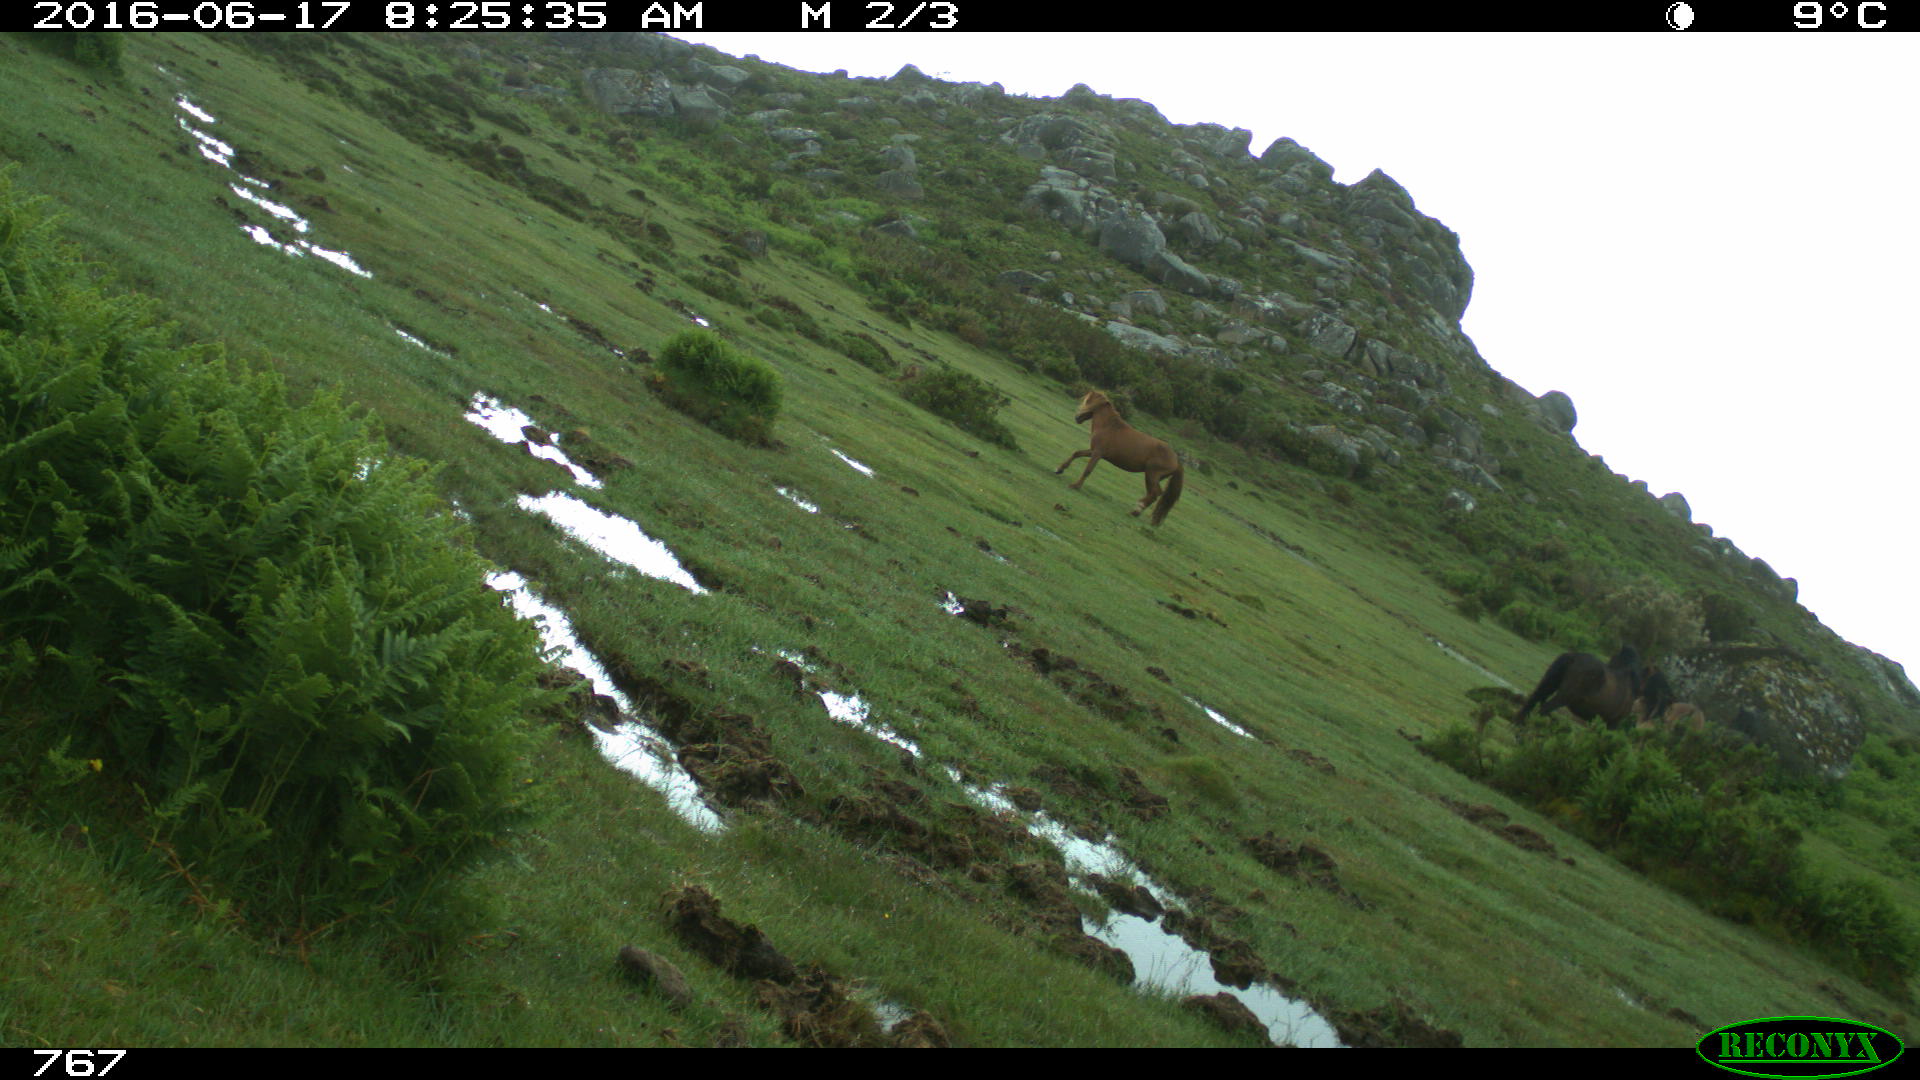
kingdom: Animalia
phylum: Chordata
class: Mammalia
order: Perissodactyla
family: Equidae
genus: Equus
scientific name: Equus caballus
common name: Horse
